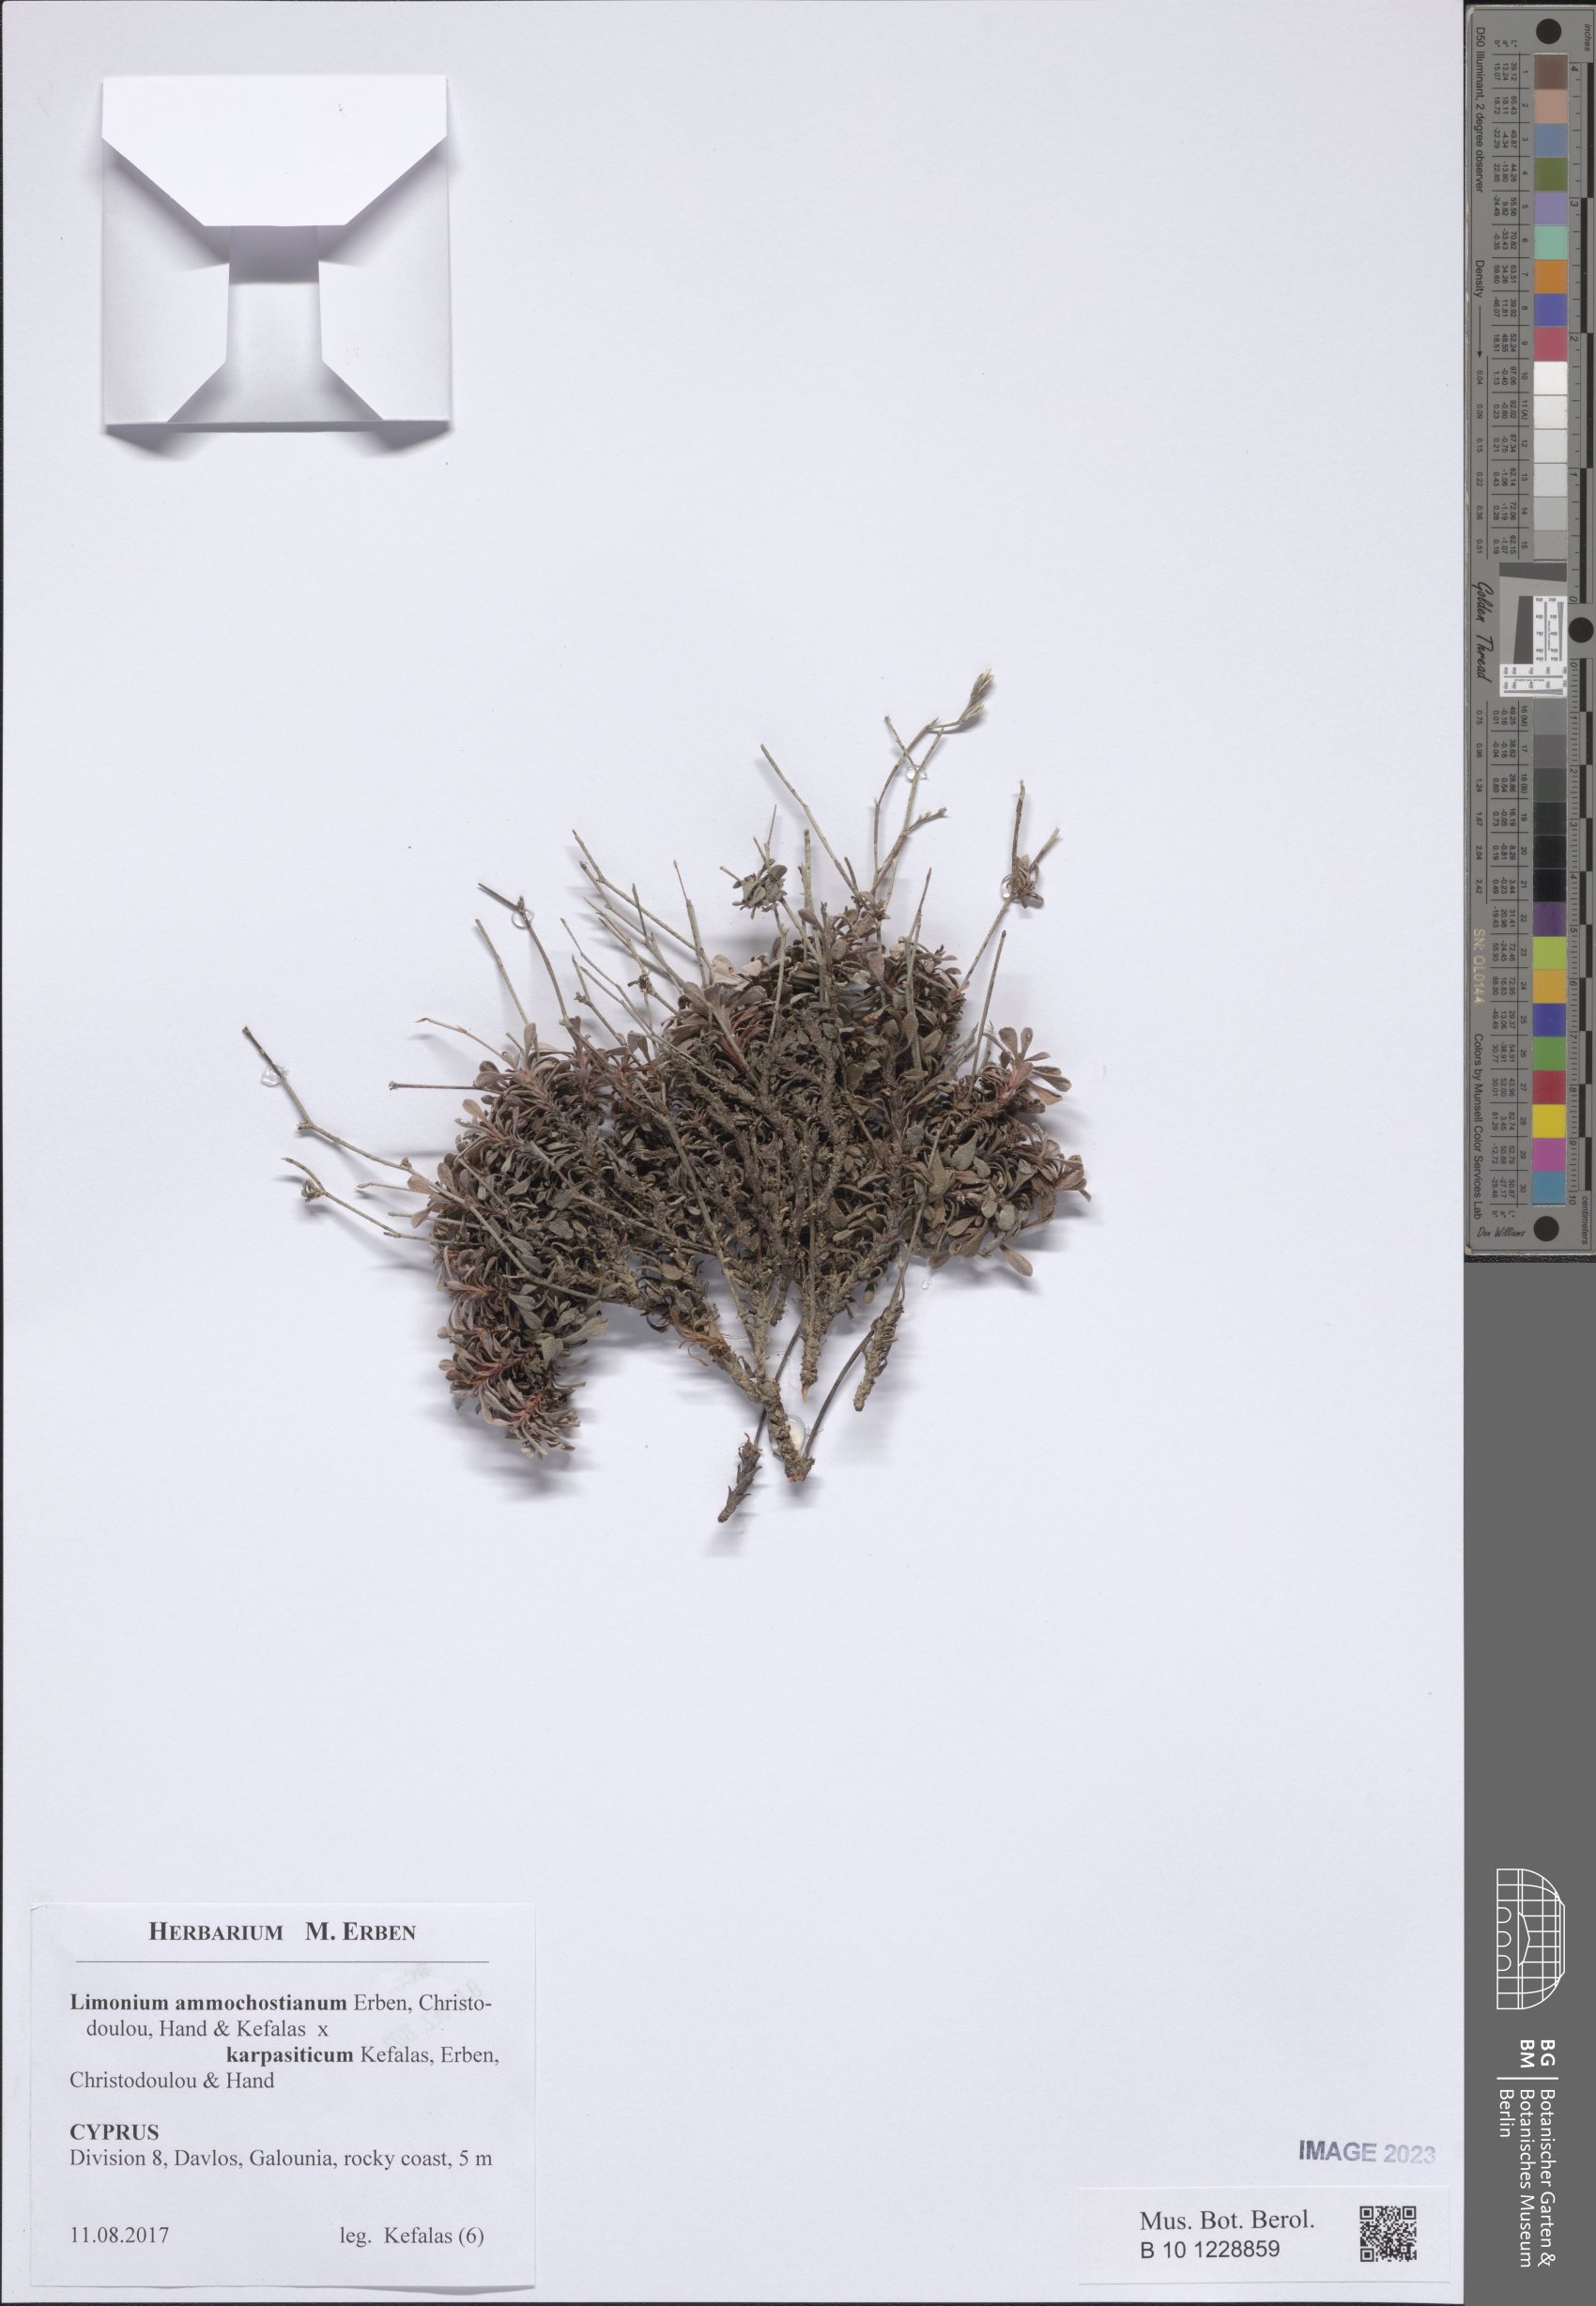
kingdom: Plantae
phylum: Tracheophyta
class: Magnoliopsida
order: Caryophyllales
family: Plumbaginaceae
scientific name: Plumbaginaceae
